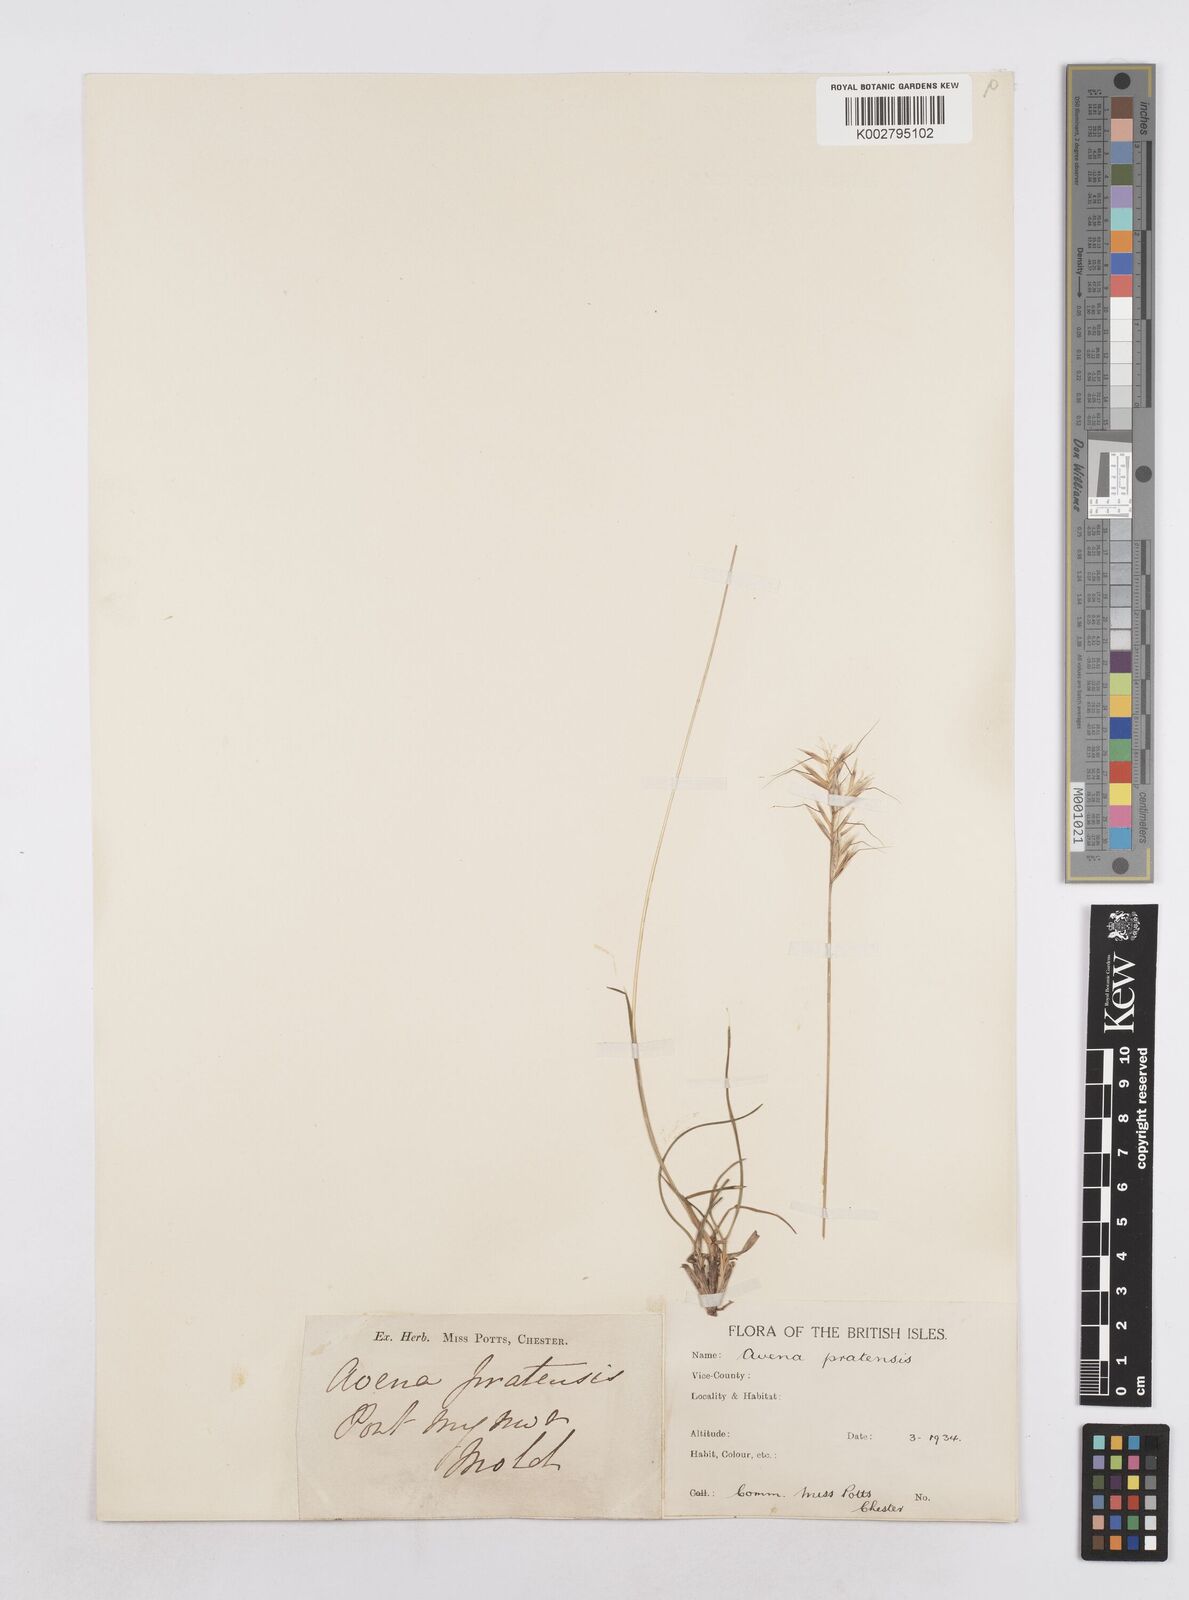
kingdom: Plantae
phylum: Tracheophyta
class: Liliopsida
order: Poales
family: Poaceae
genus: Helictochloa
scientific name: Helictochloa pratensis
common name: Meadow oat grass
